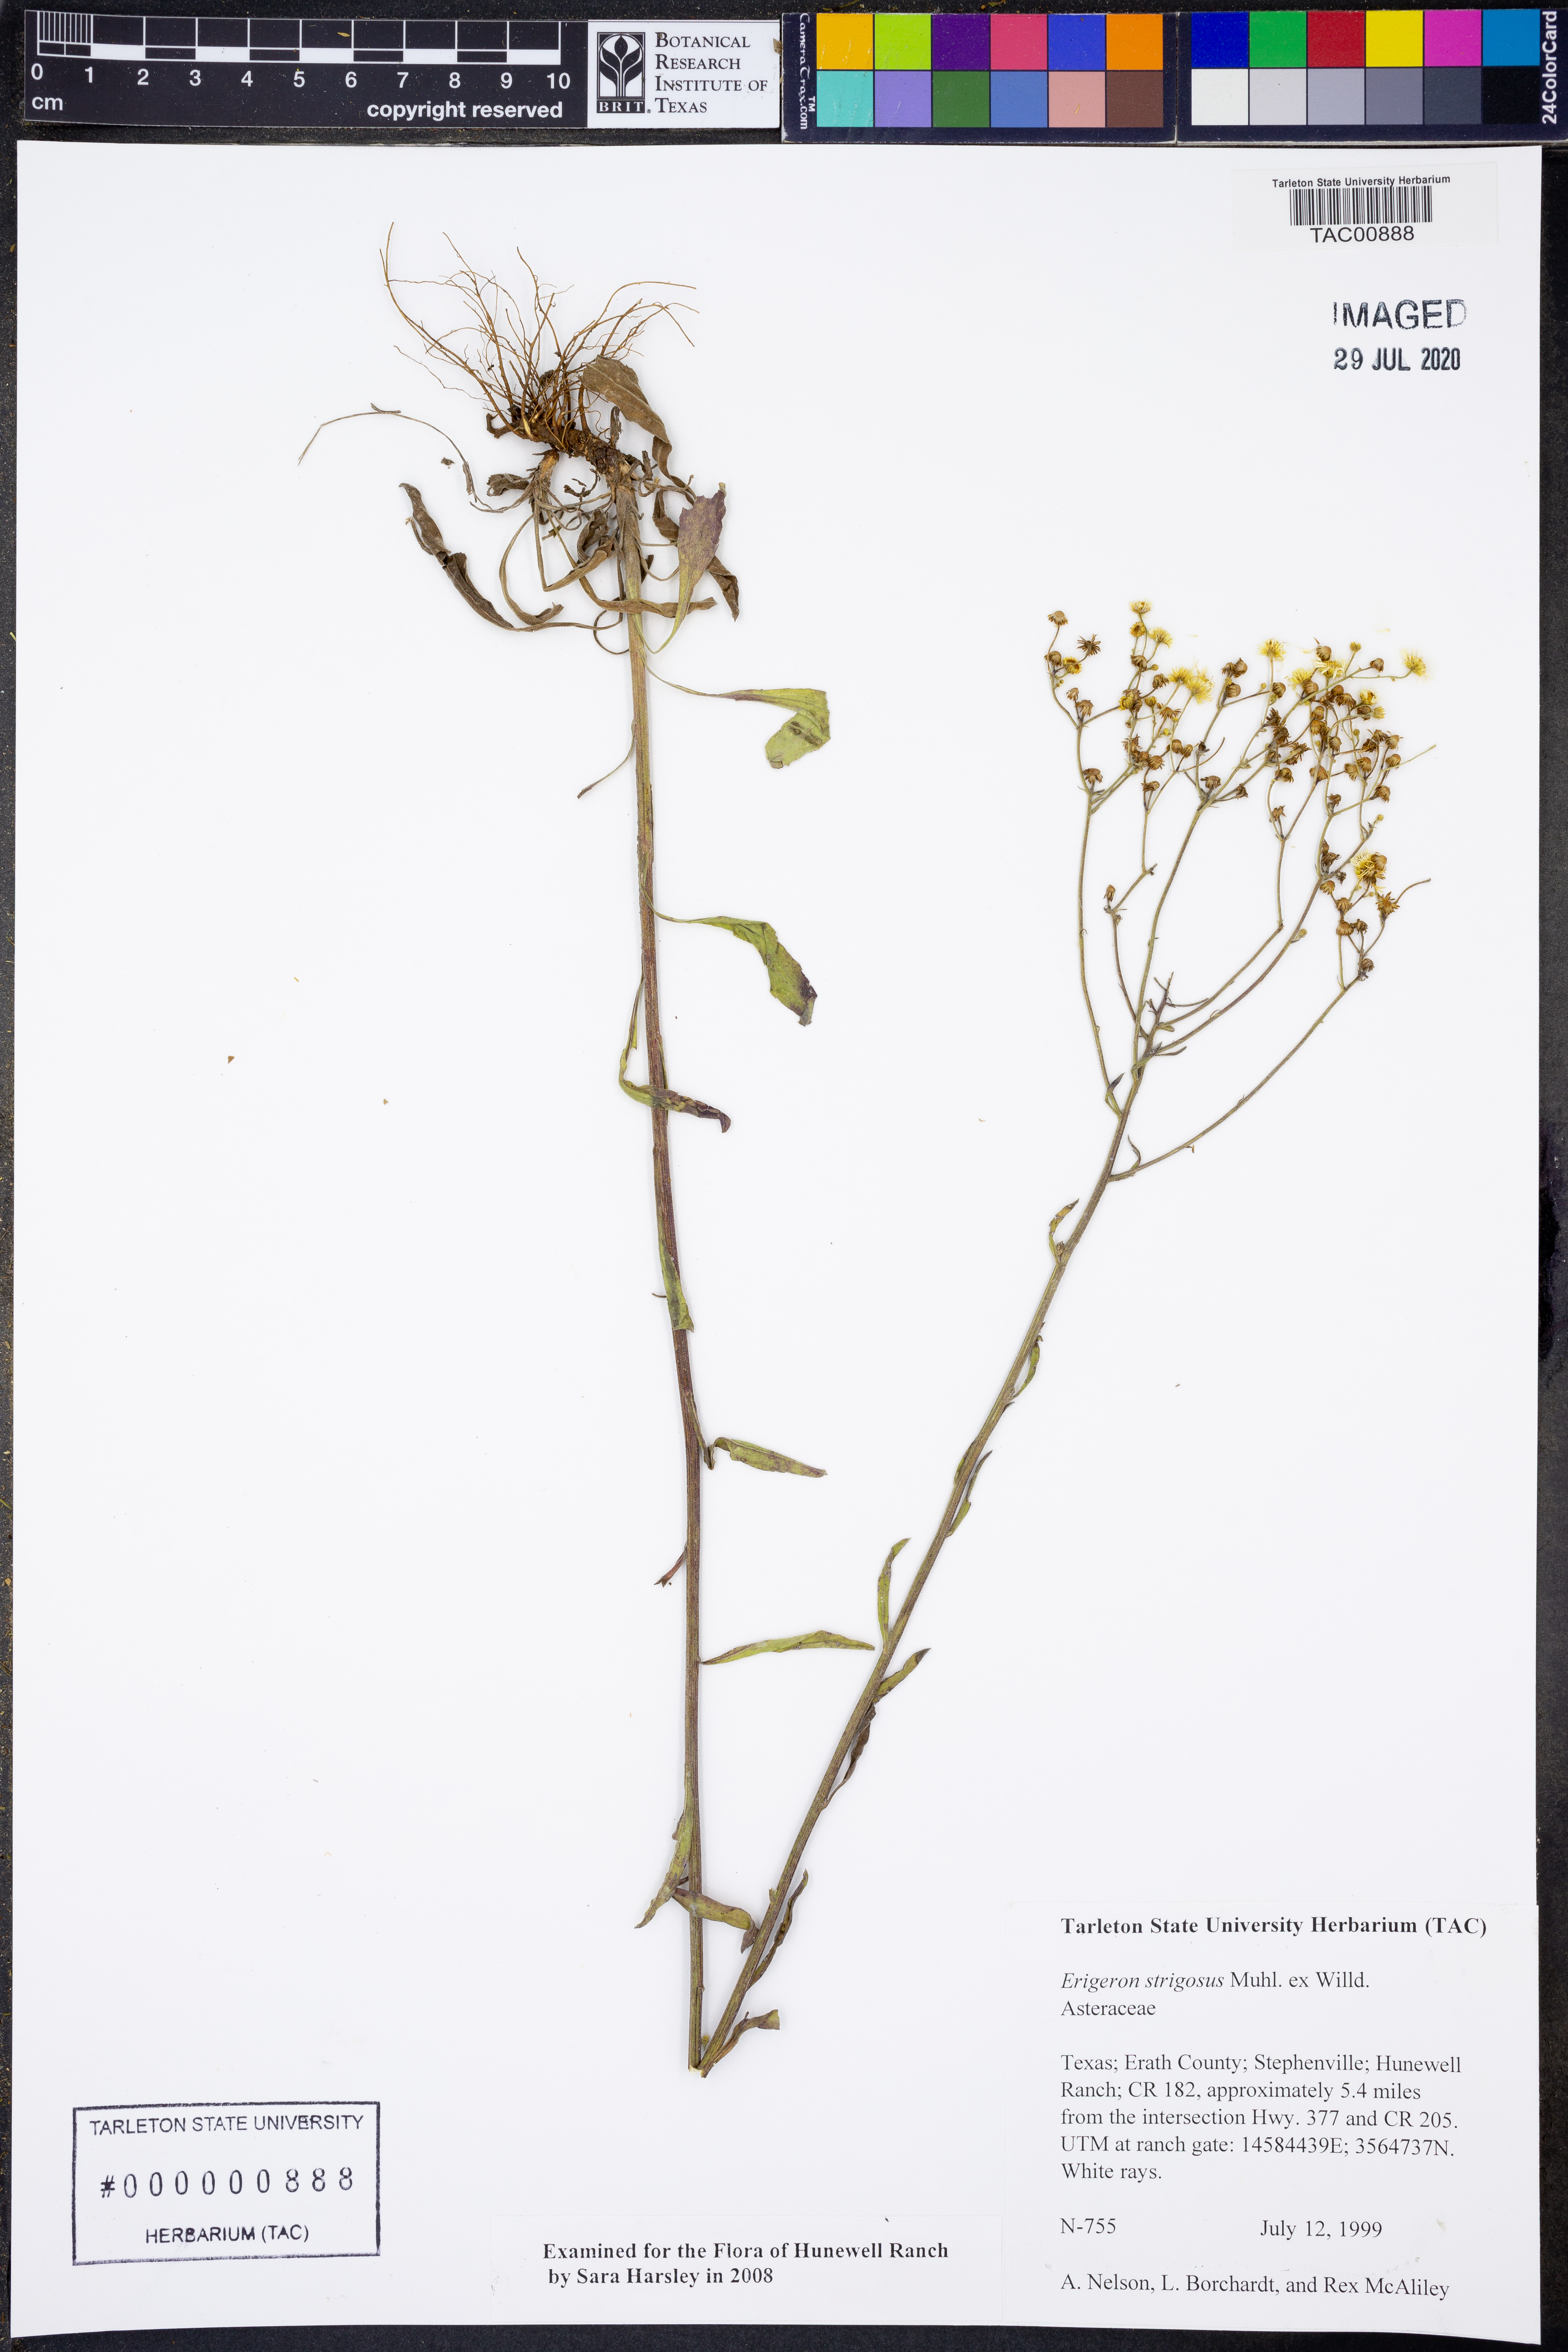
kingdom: Plantae
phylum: Tracheophyta
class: Magnoliopsida
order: Asterales
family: Asteraceae
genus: Erigeron
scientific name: Erigeron strigosus
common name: Common eastern fleabane
